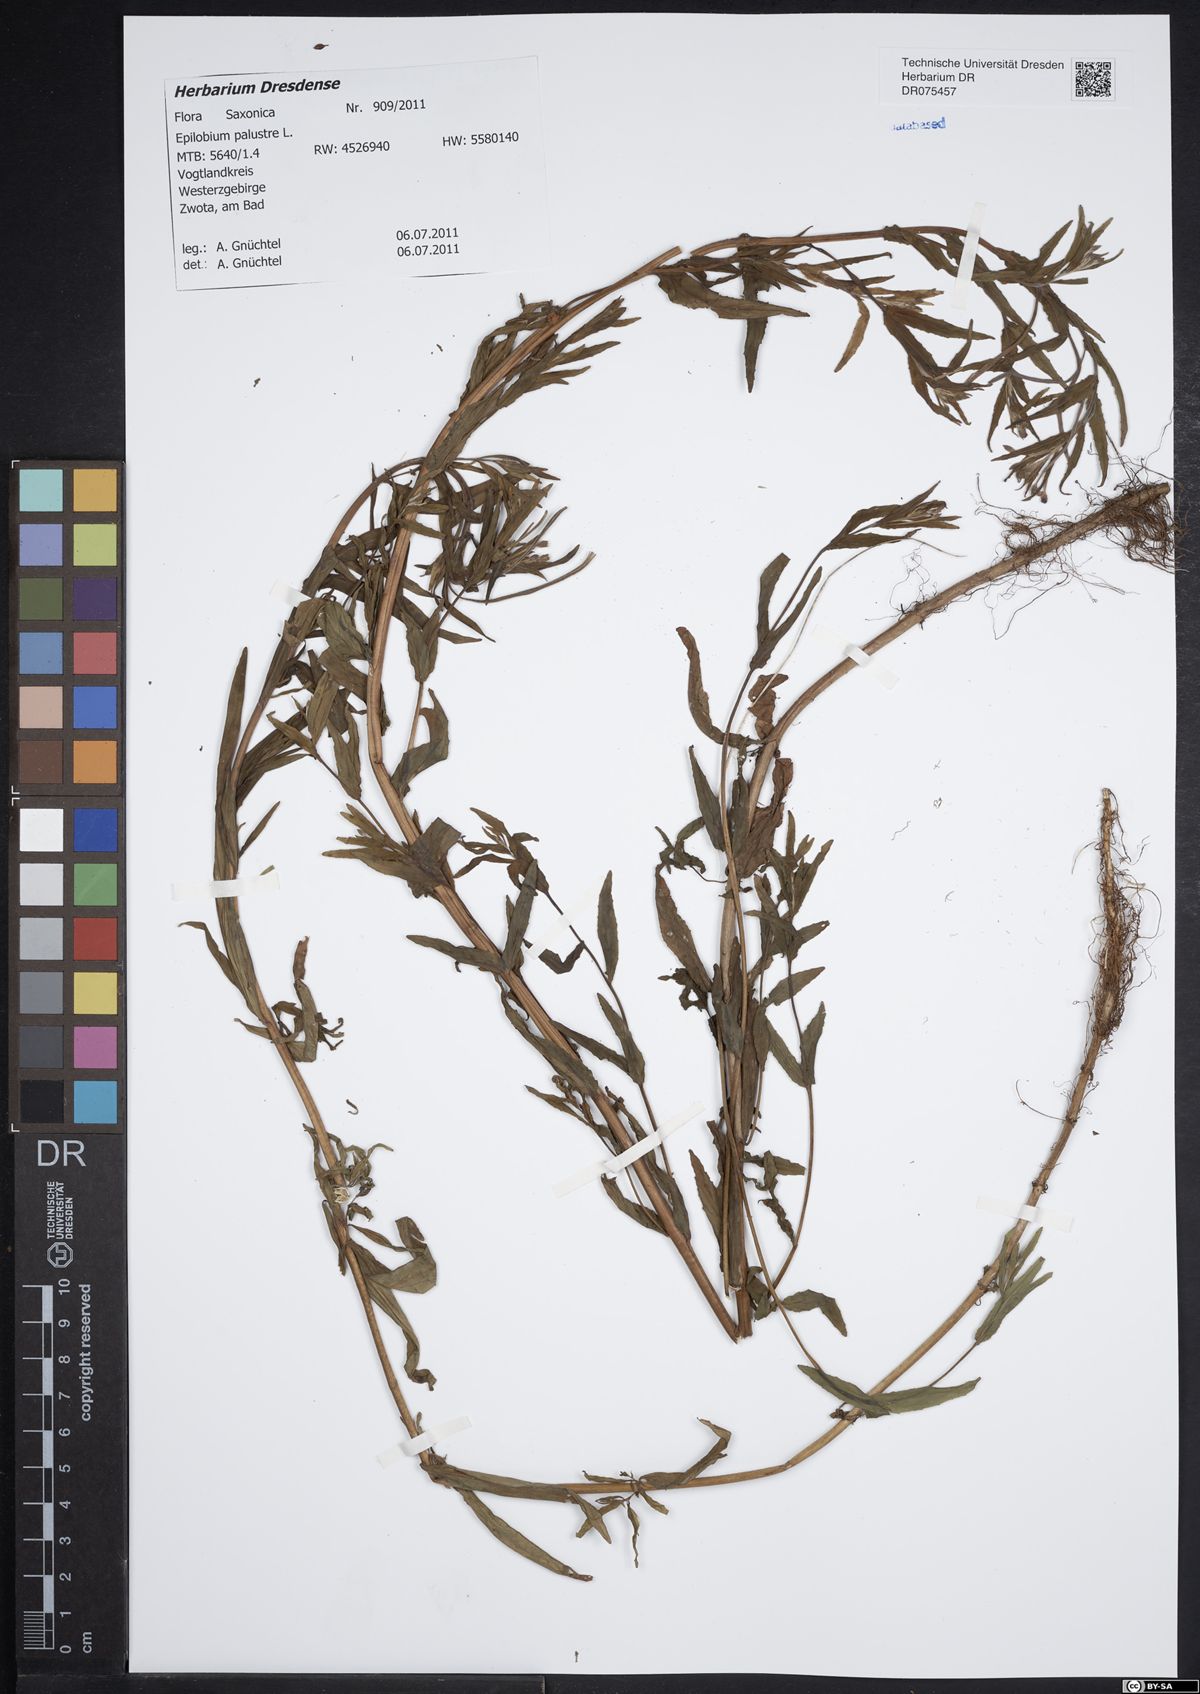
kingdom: Plantae
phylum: Tracheophyta
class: Magnoliopsida
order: Myrtales
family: Onagraceae
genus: Epilobium
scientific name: Epilobium palustre
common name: Marsh willowherb
